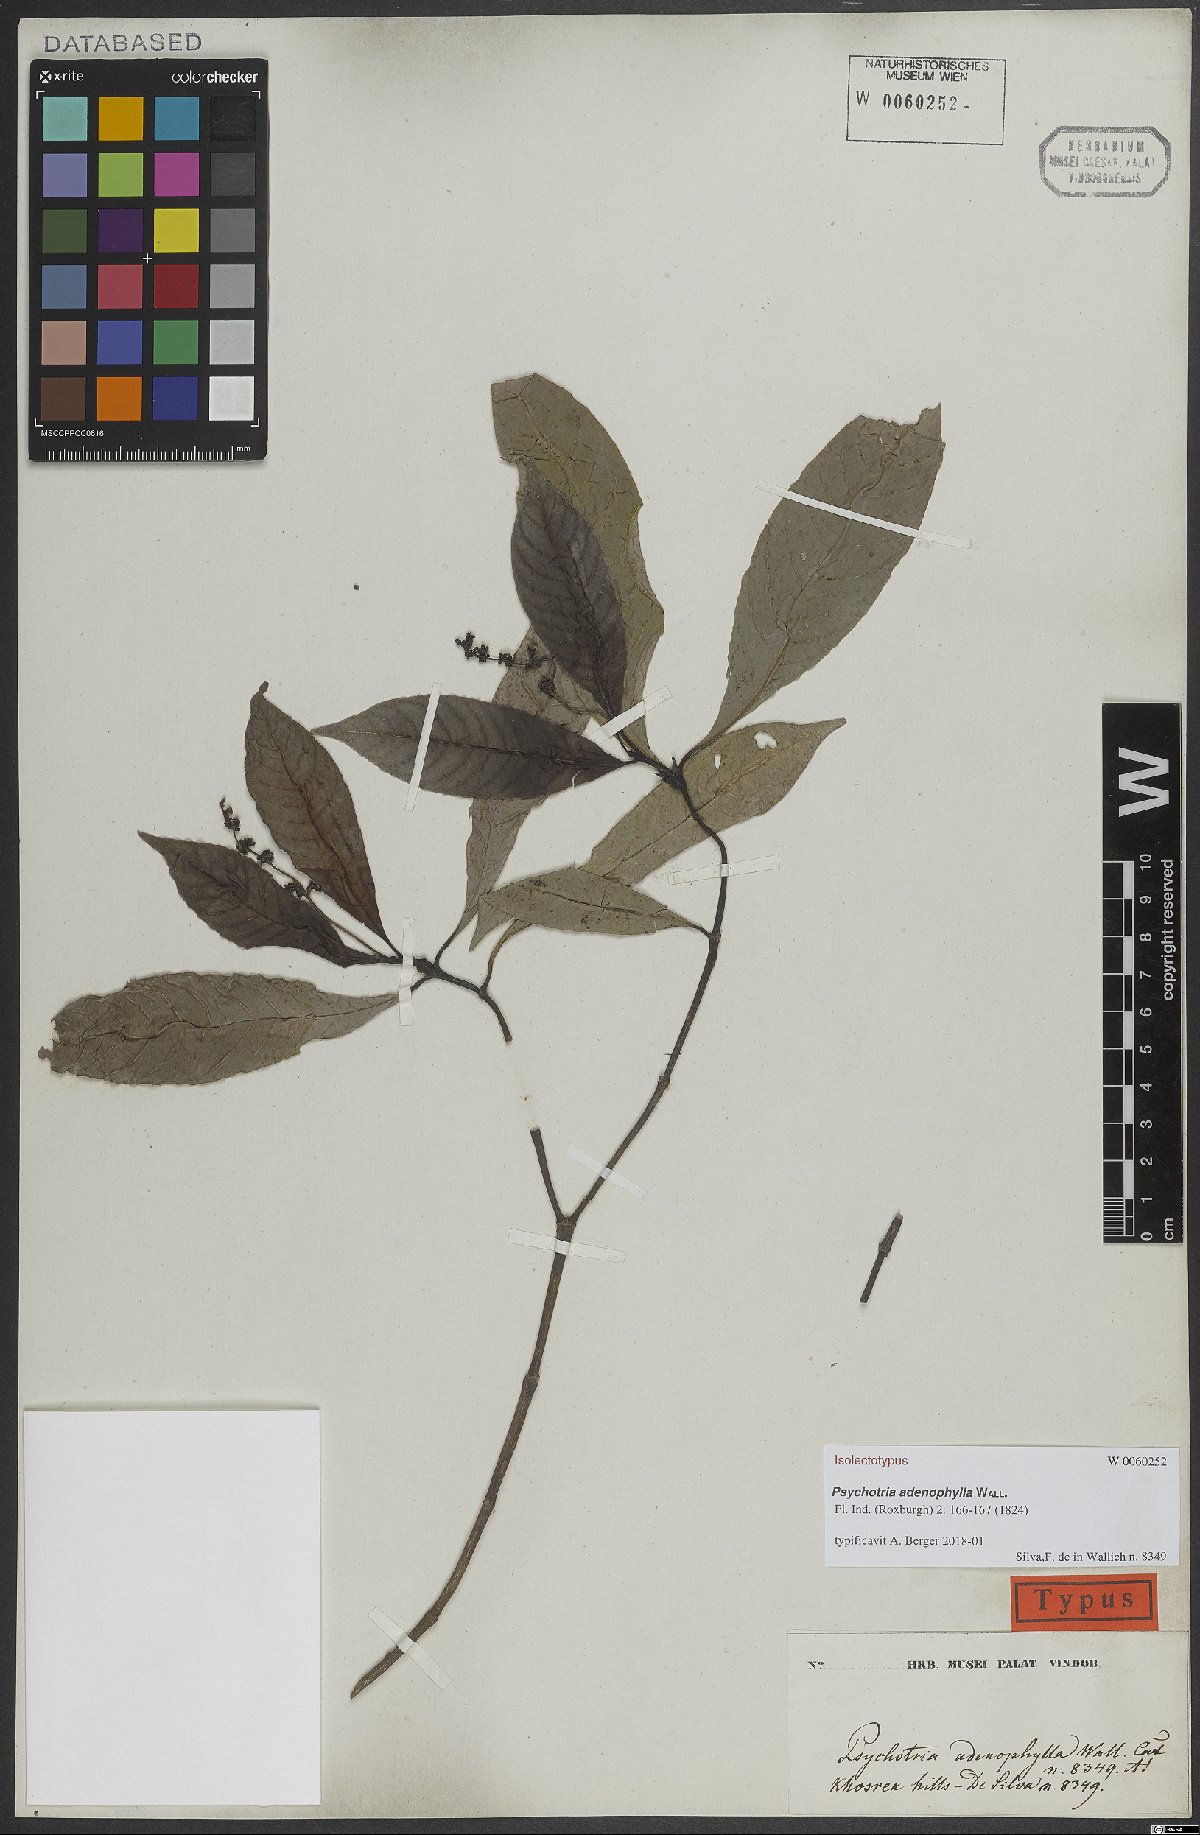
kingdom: Plantae
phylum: Tracheophyta
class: Magnoliopsida
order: Gentianales
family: Rubiaceae
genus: Psychotria
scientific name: Psychotria adenophylla
